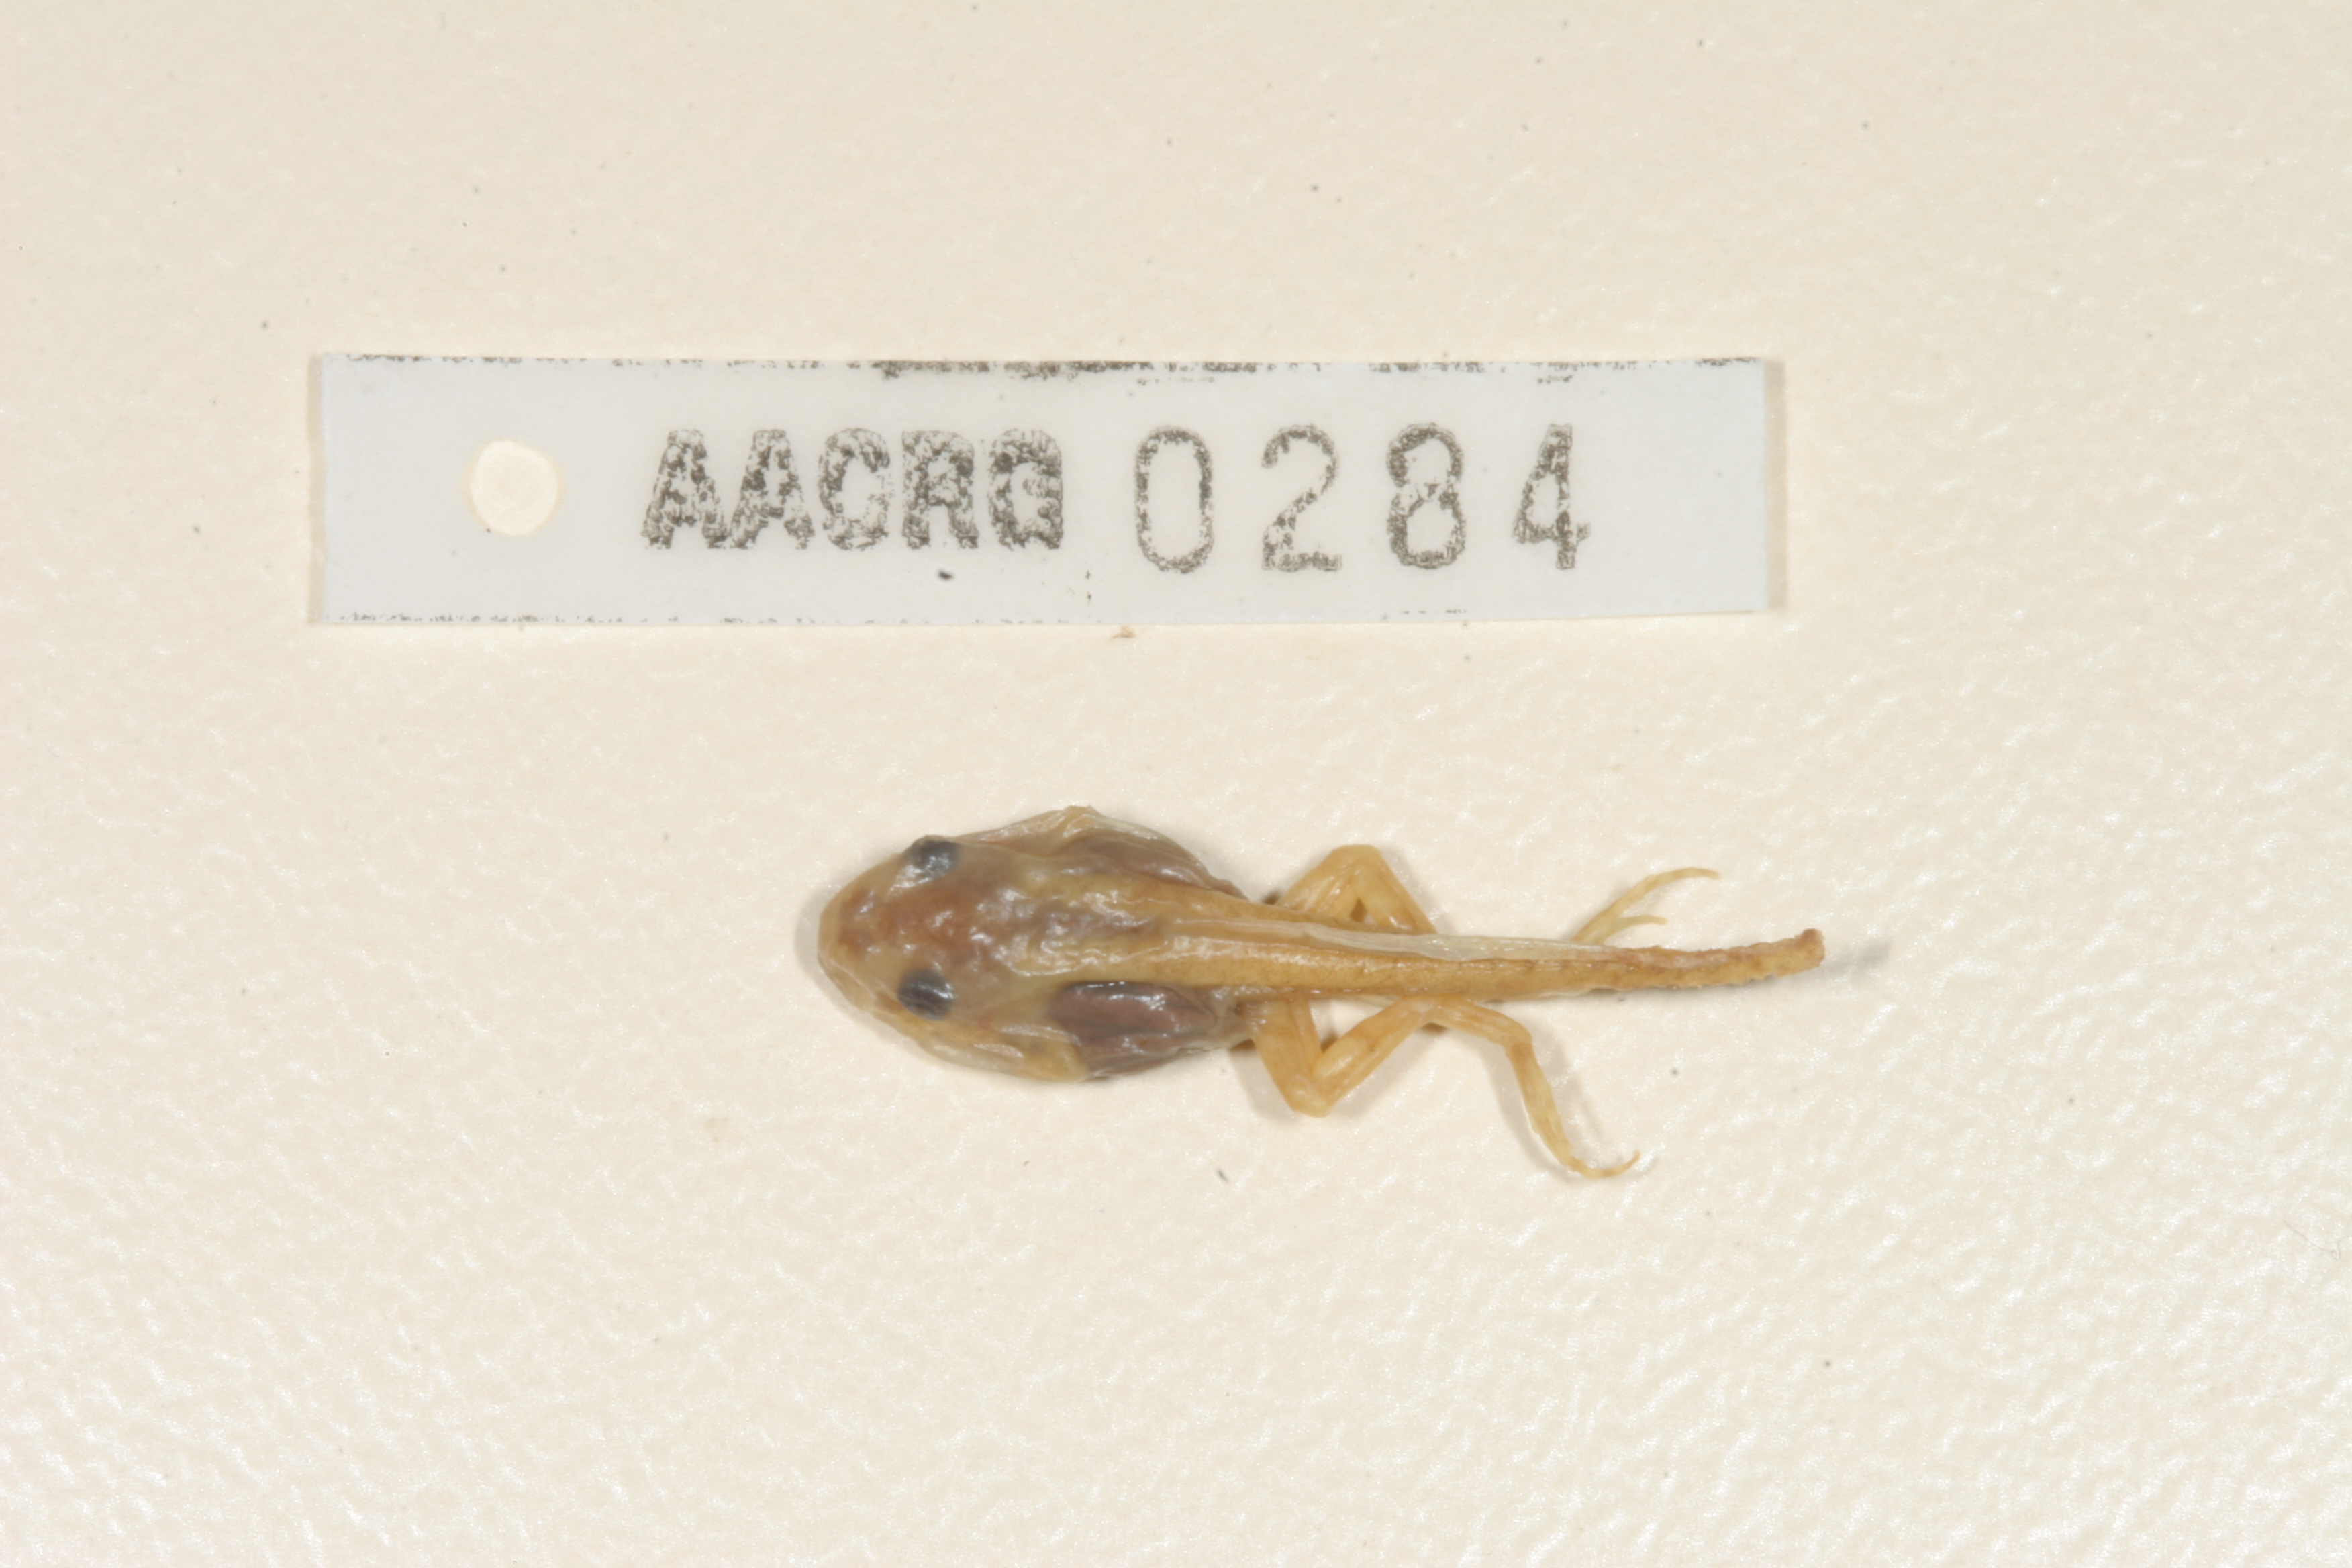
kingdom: Animalia
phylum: Chordata
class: Amphibia
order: Anura
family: Pyxicephalidae
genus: Cacosternum
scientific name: Cacosternum boettgeri
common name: Boettger's frog
